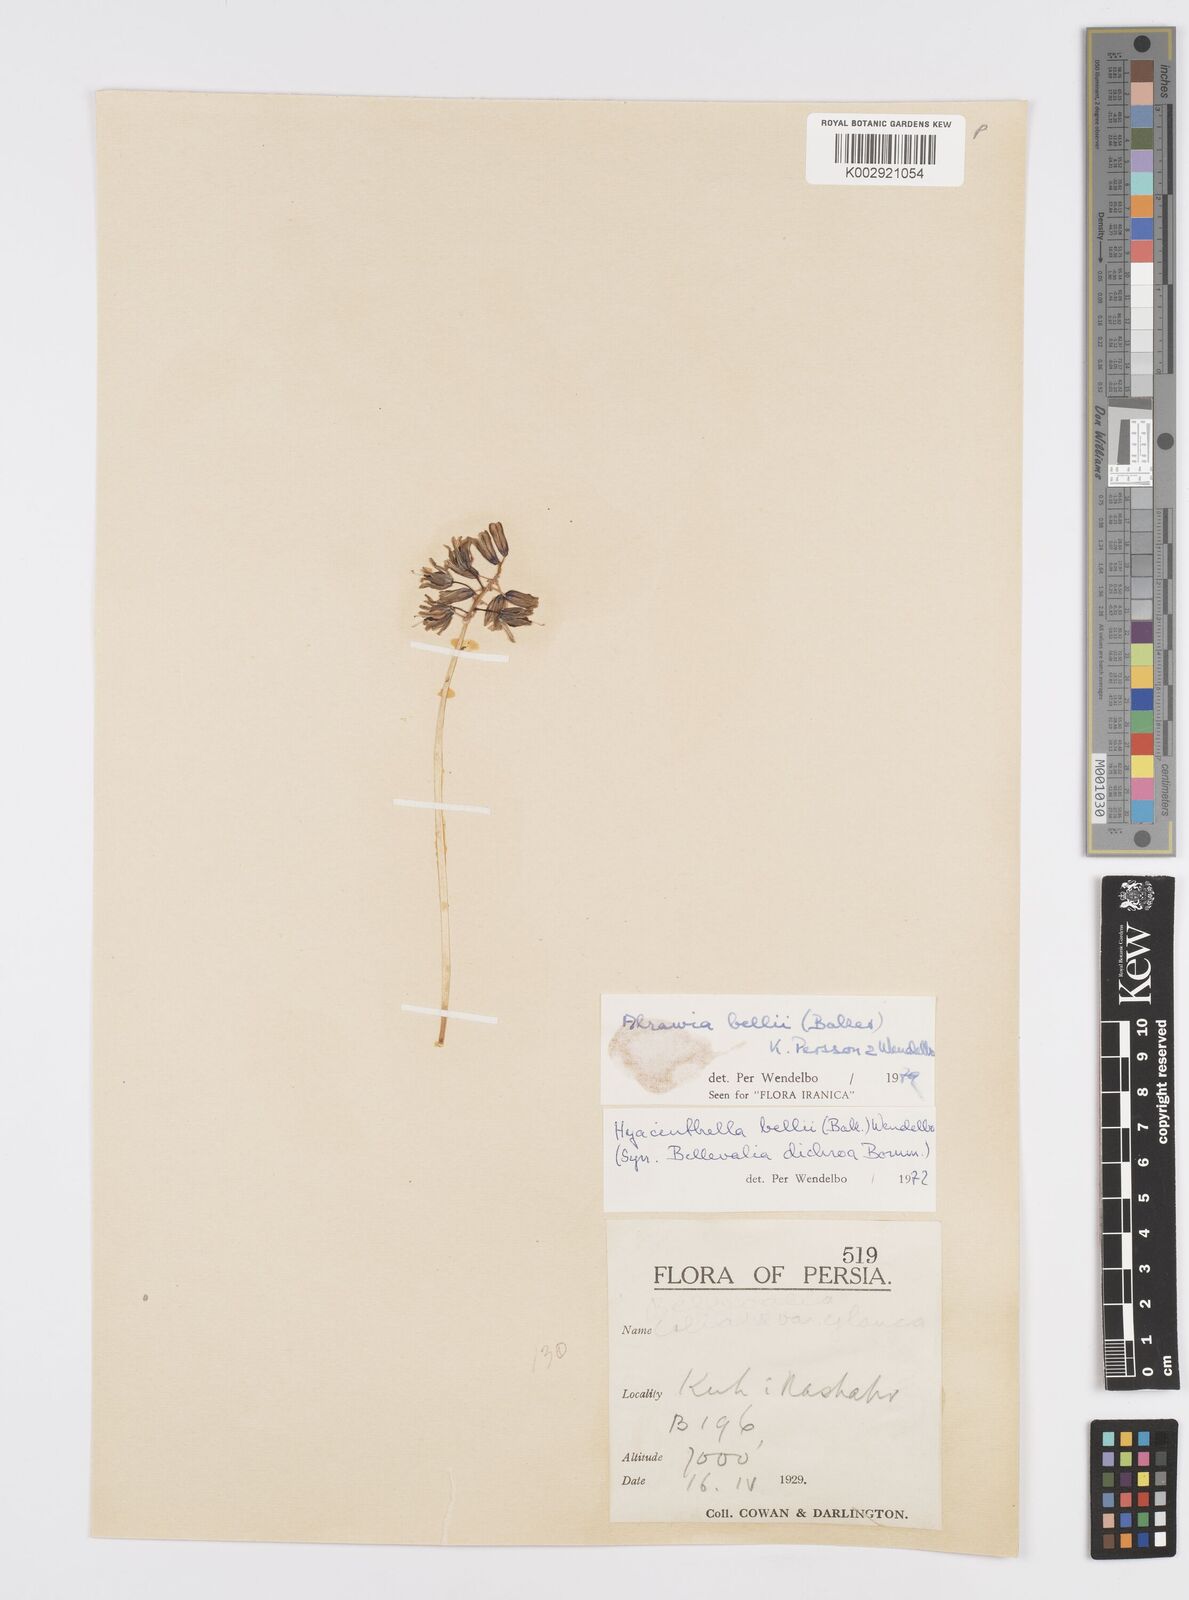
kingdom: Plantae
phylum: Tracheophyta
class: Liliopsida
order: Asparagales
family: Asparagaceae
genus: Alrawia
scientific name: Alrawia bellii
